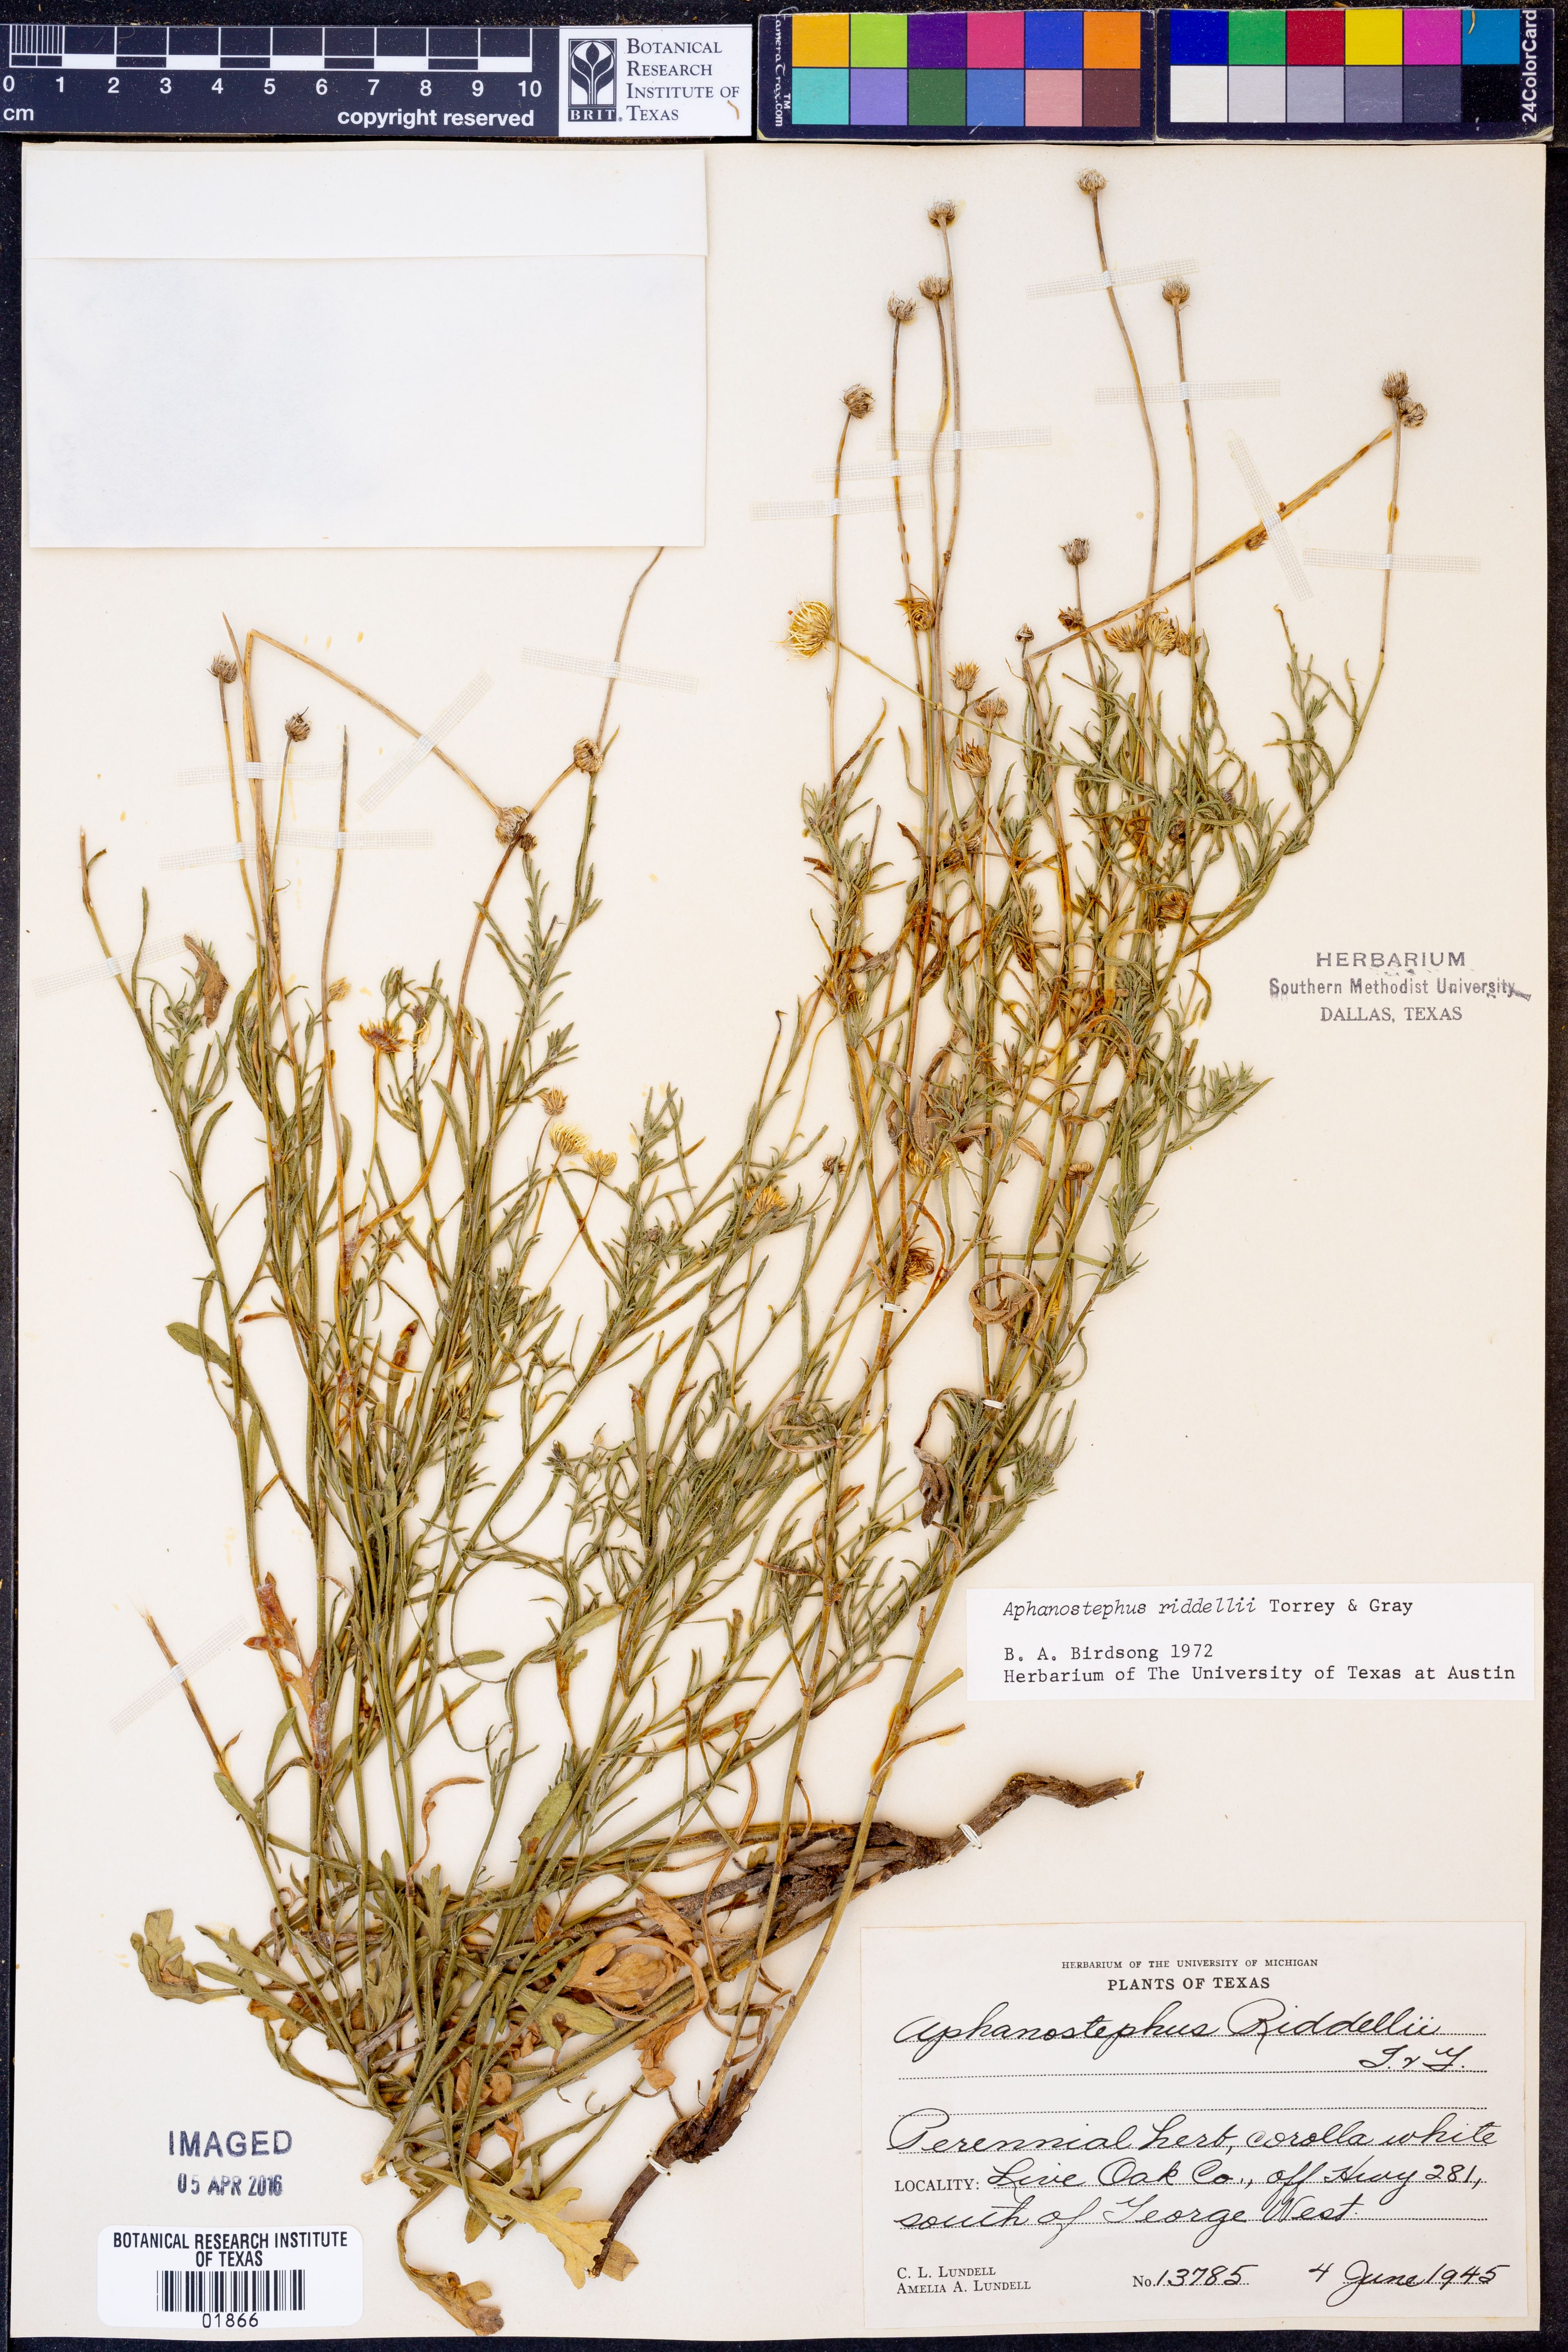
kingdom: Plantae
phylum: Tracheophyta
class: Magnoliopsida
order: Asterales
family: Asteraceae
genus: Aphanostephus
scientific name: Aphanostephus riddellii
